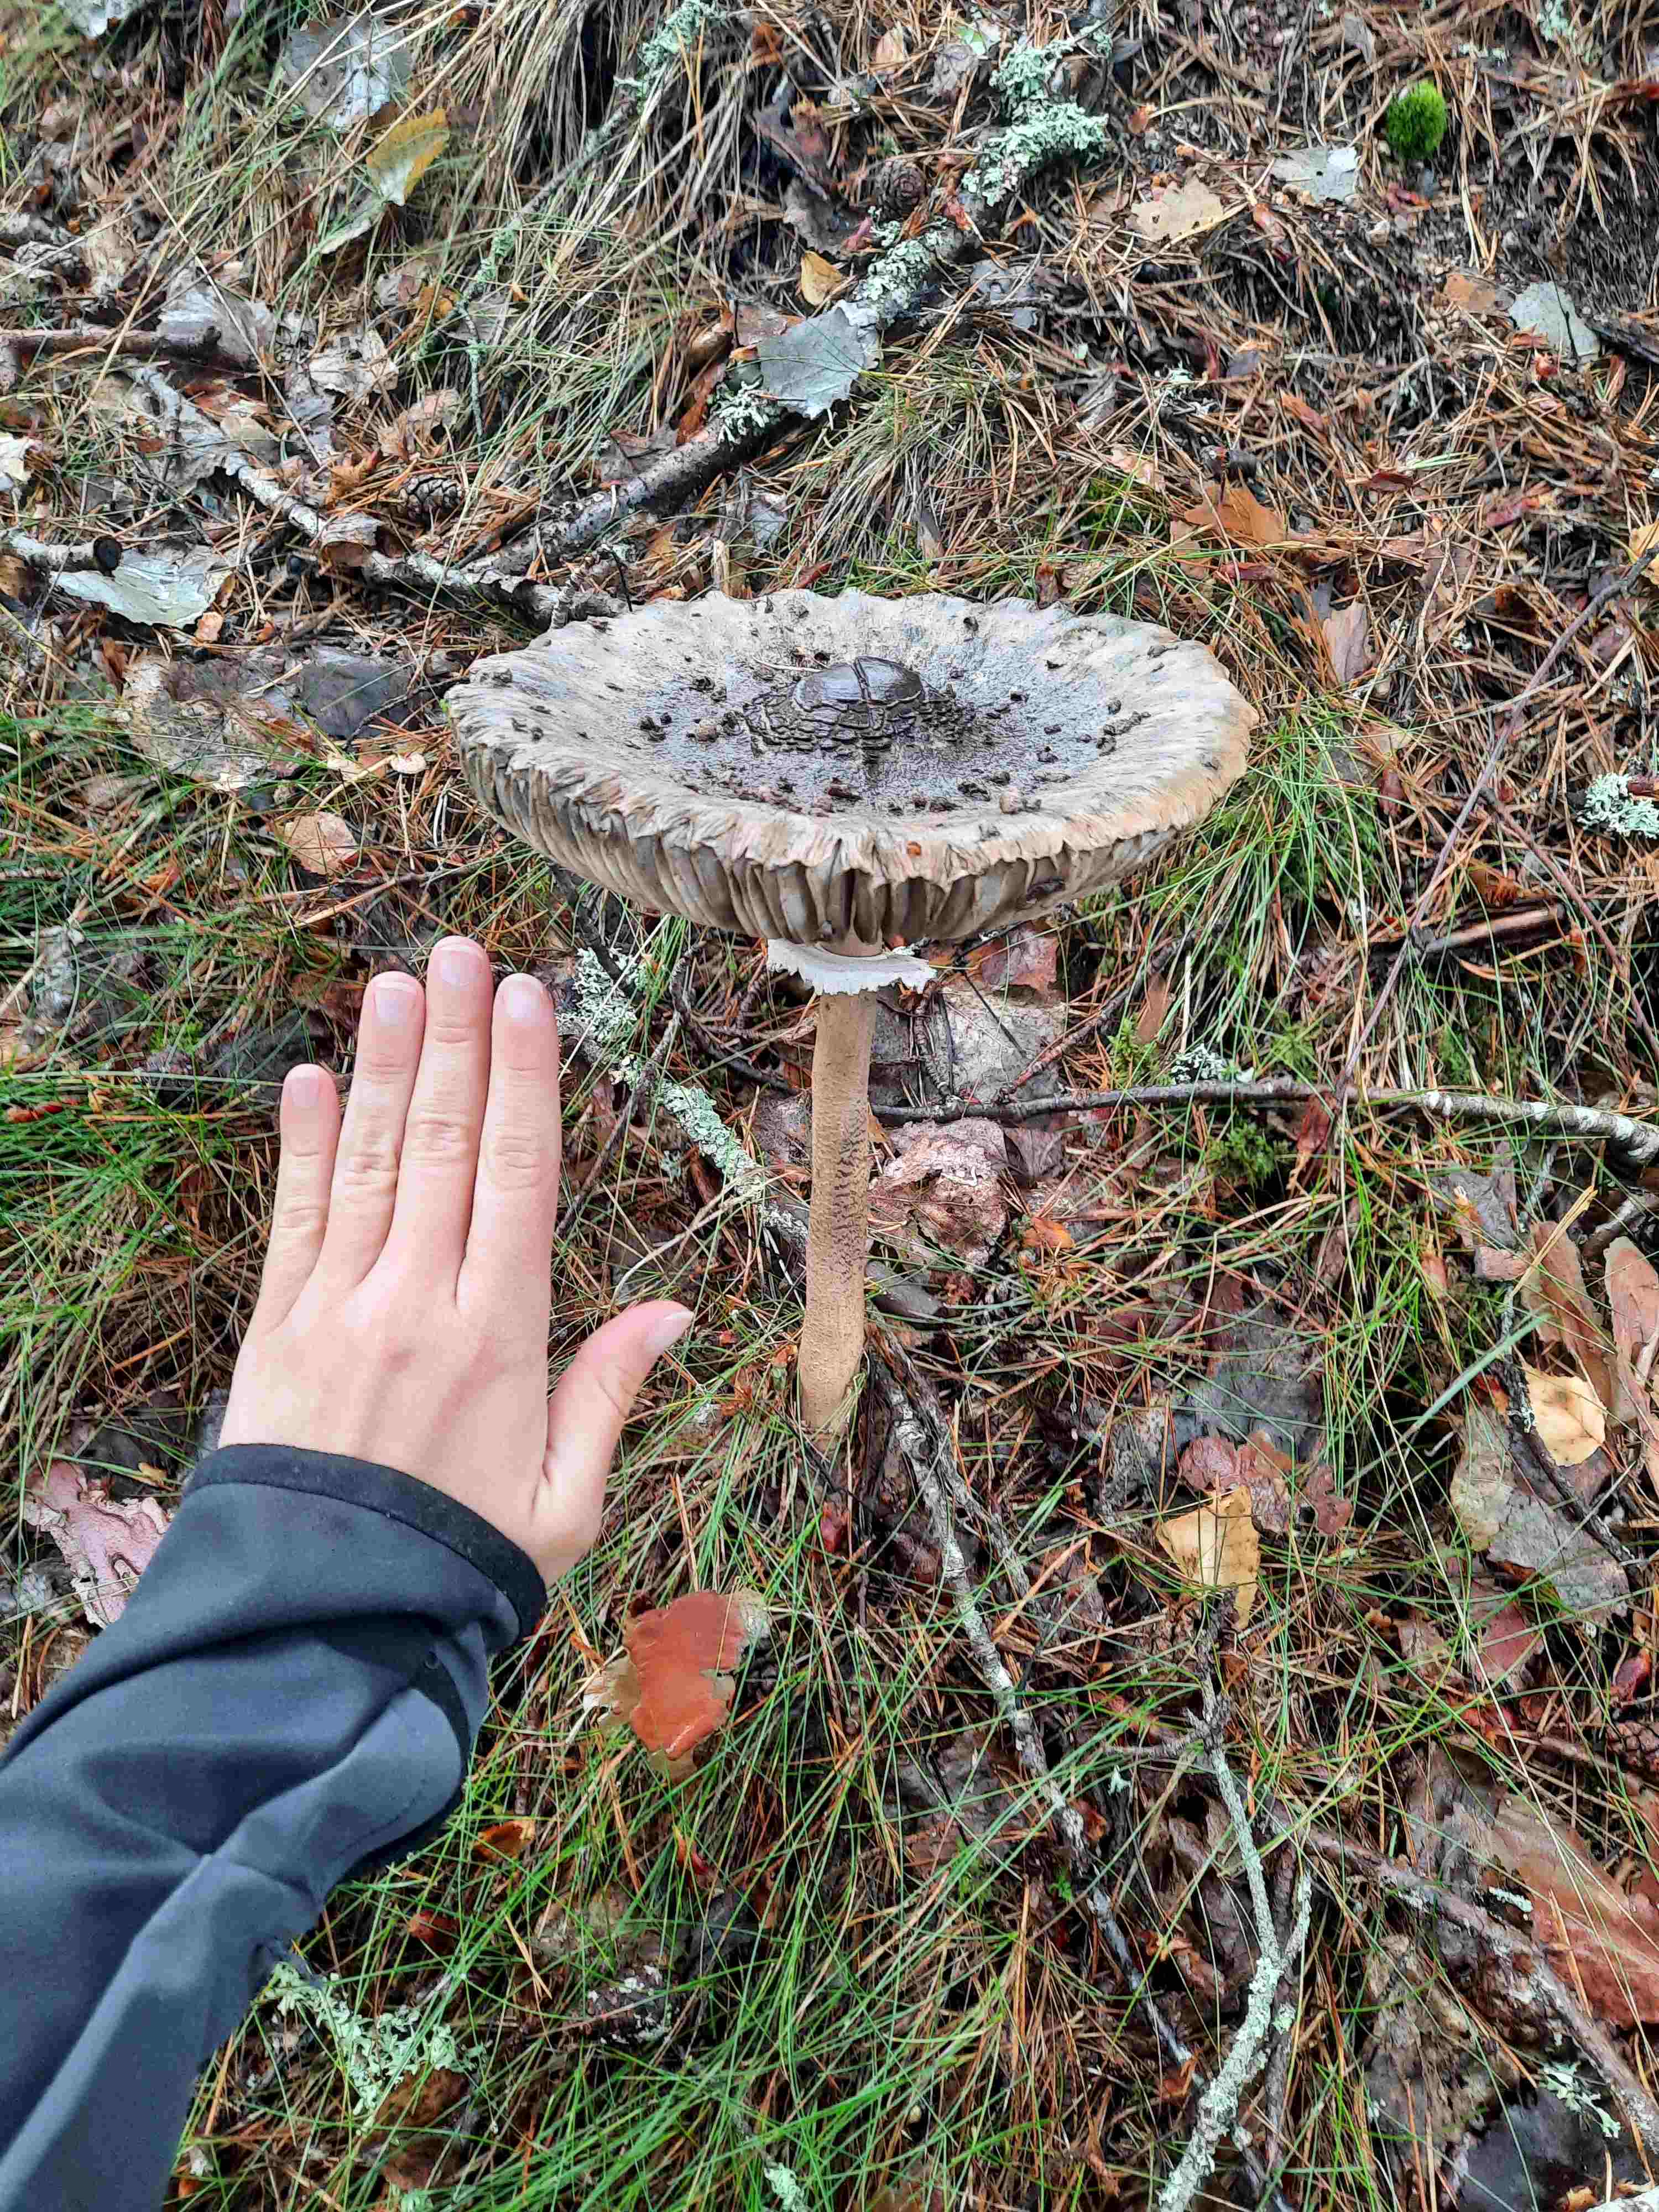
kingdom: Fungi
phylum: Basidiomycota
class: Agaricomycetes
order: Agaricales
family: Agaricaceae
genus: Macrolepiota
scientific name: Macrolepiota
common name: kæmpeparasolhat
